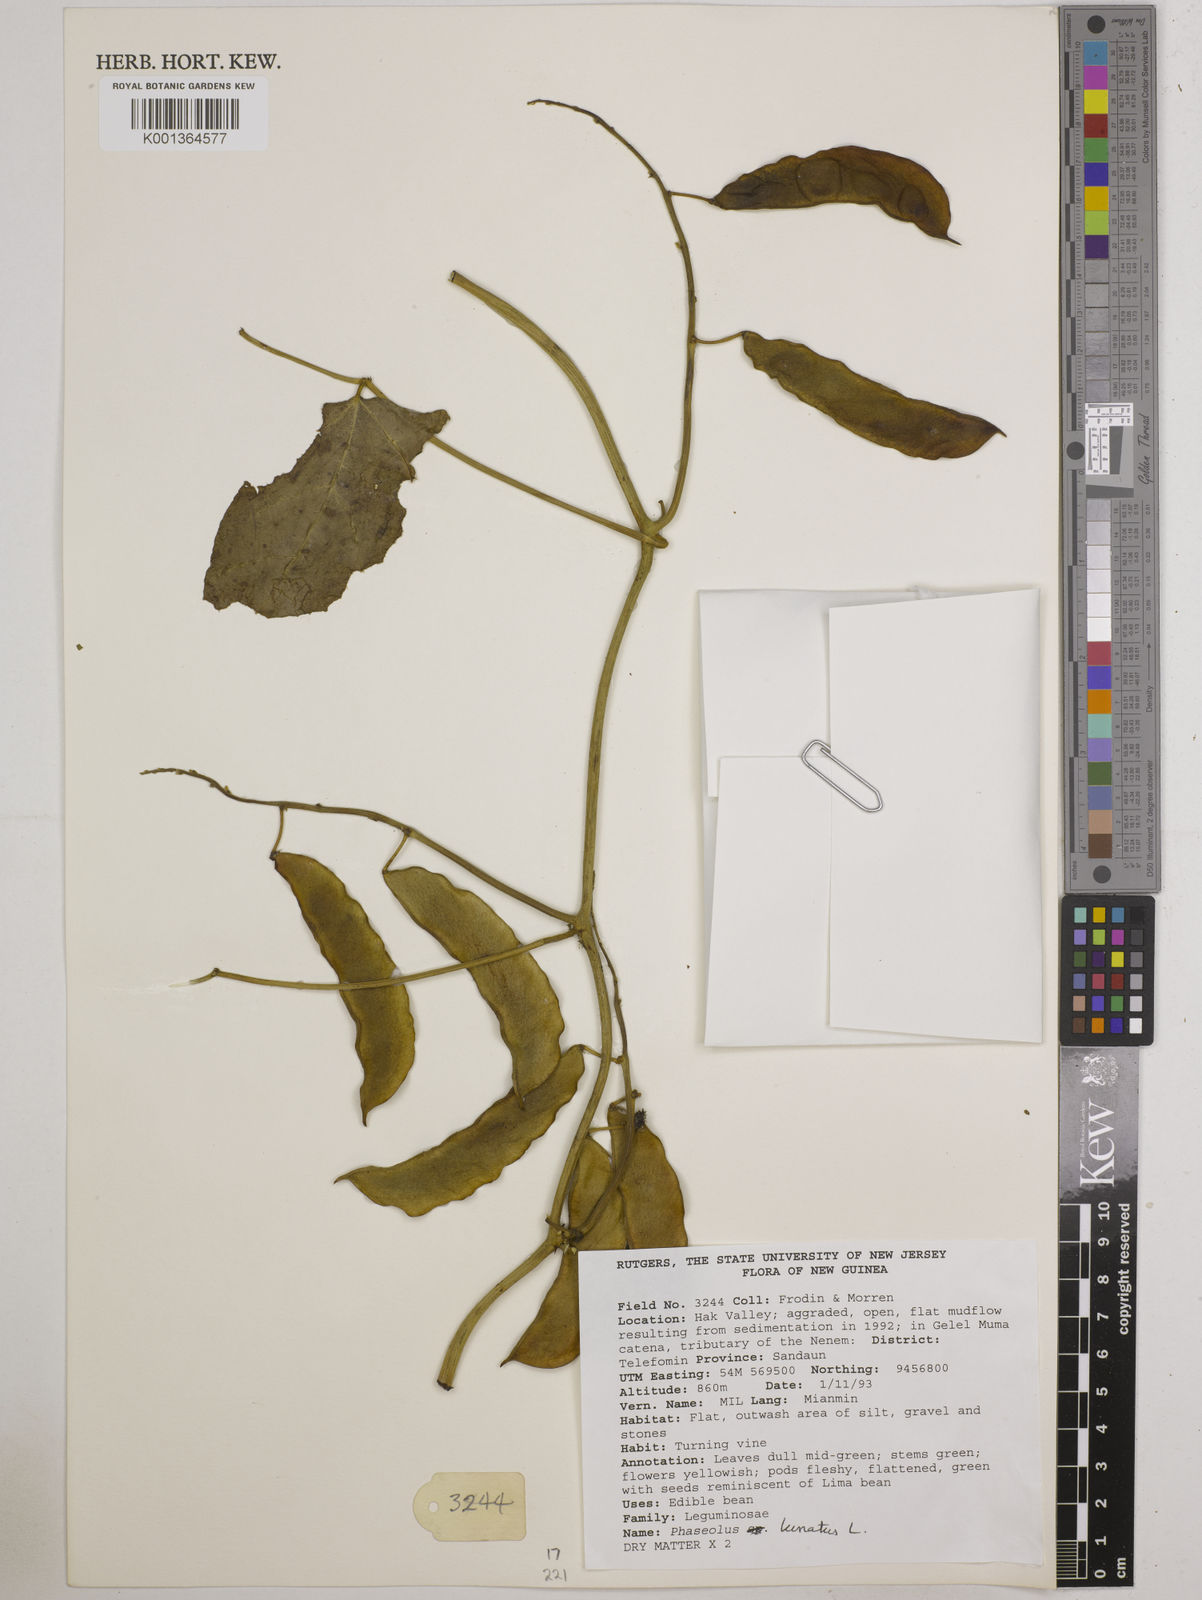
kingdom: Plantae
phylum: Tracheophyta
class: Magnoliopsida
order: Fabales
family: Fabaceae
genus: Phaseolus
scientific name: Phaseolus lunatus
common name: Sieva bean
